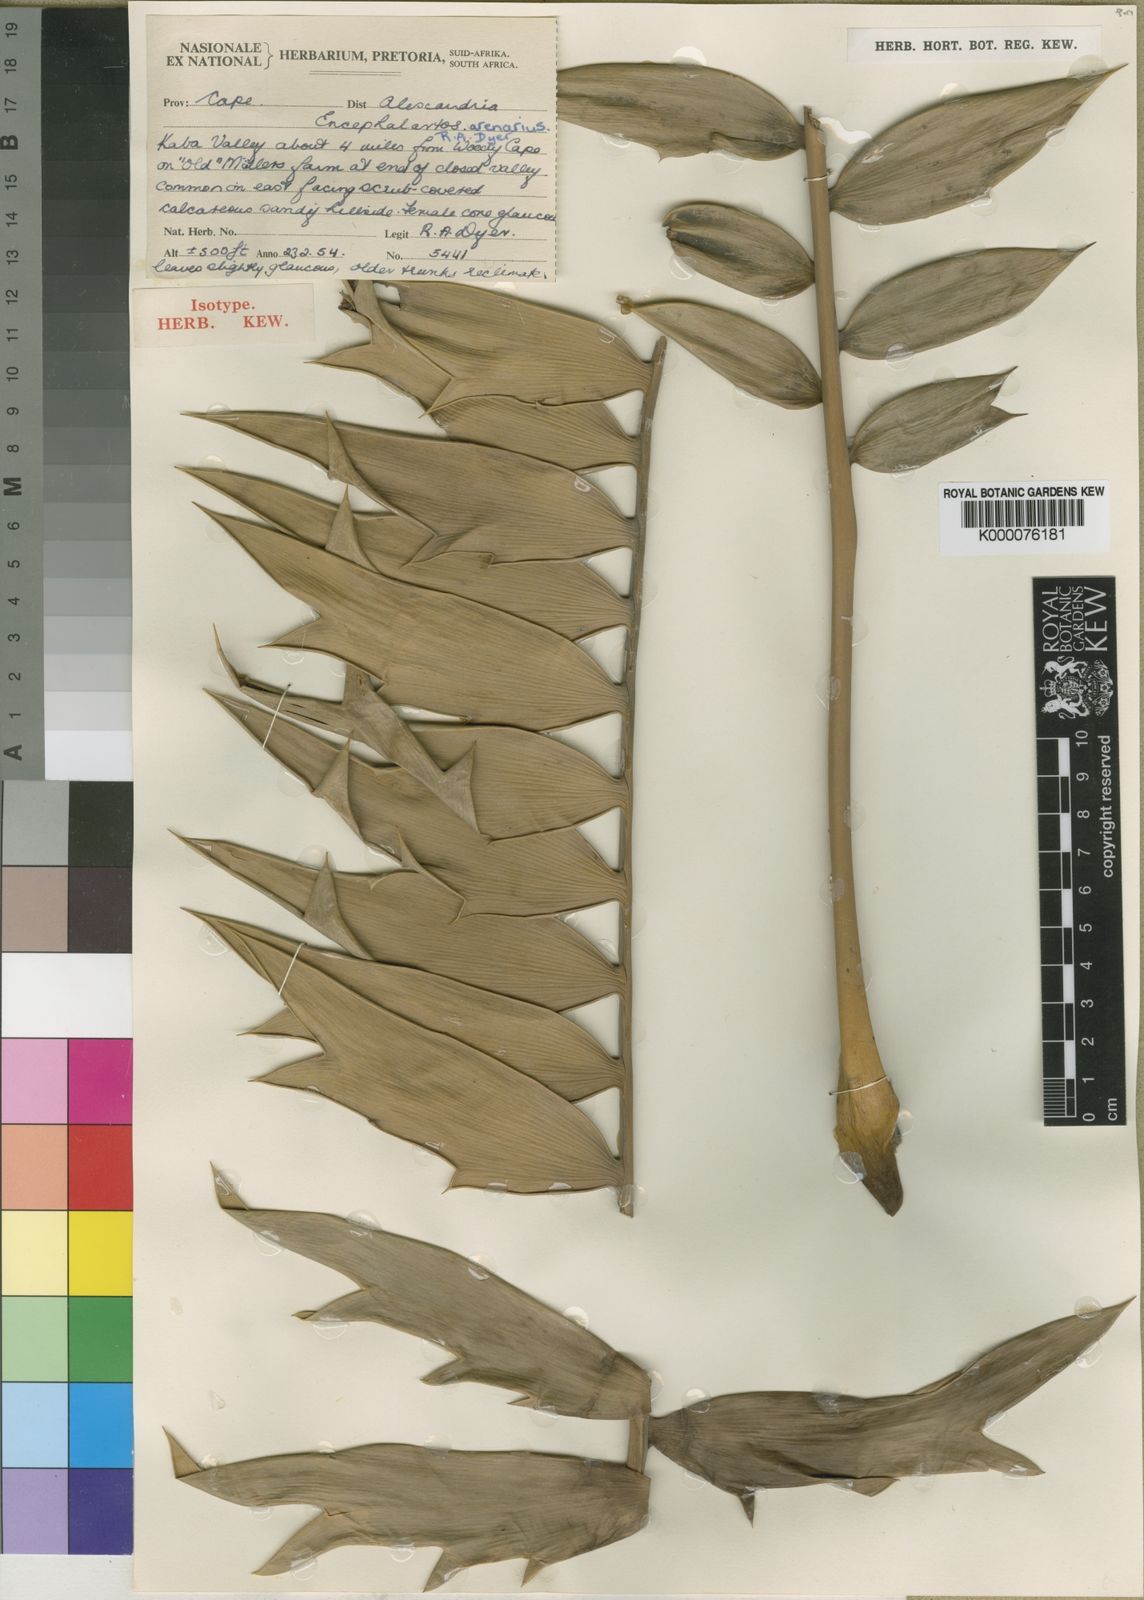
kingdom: Plantae
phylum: Tracheophyta
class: Cycadopsida
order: Cycadales
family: Zamiaceae
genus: Encephalartos
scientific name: Encephalartos arenarius
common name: Alexandria cycad
